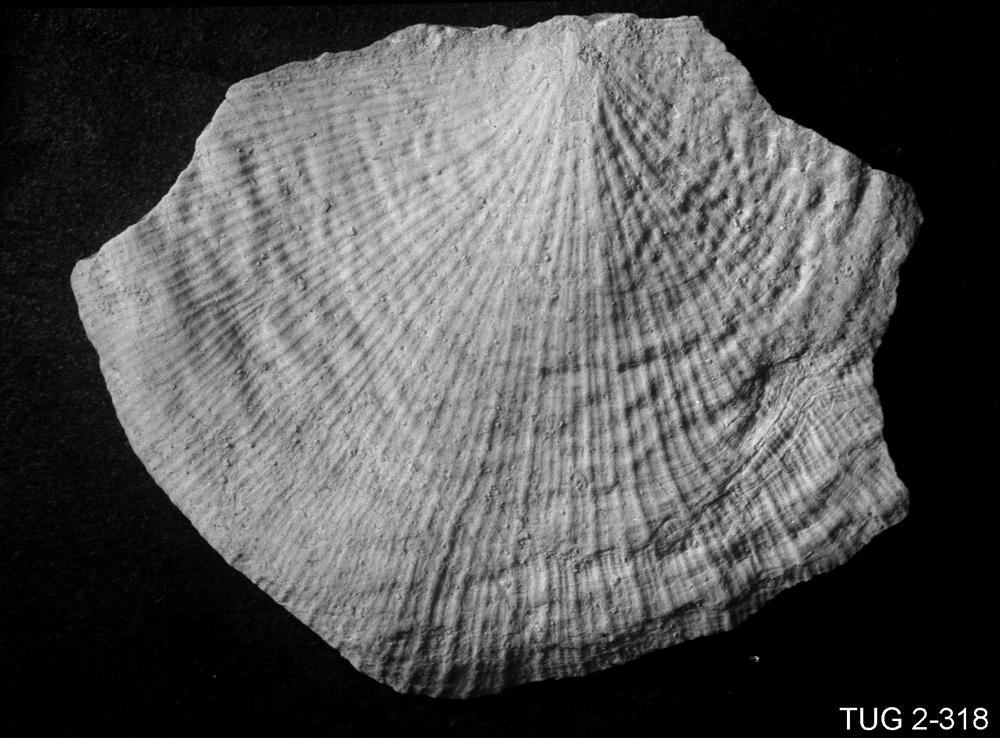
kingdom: Animalia
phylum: Brachiopoda
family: Rafinesquinidae
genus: Harjumena
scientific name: Harjumena Strophomena schmidti
